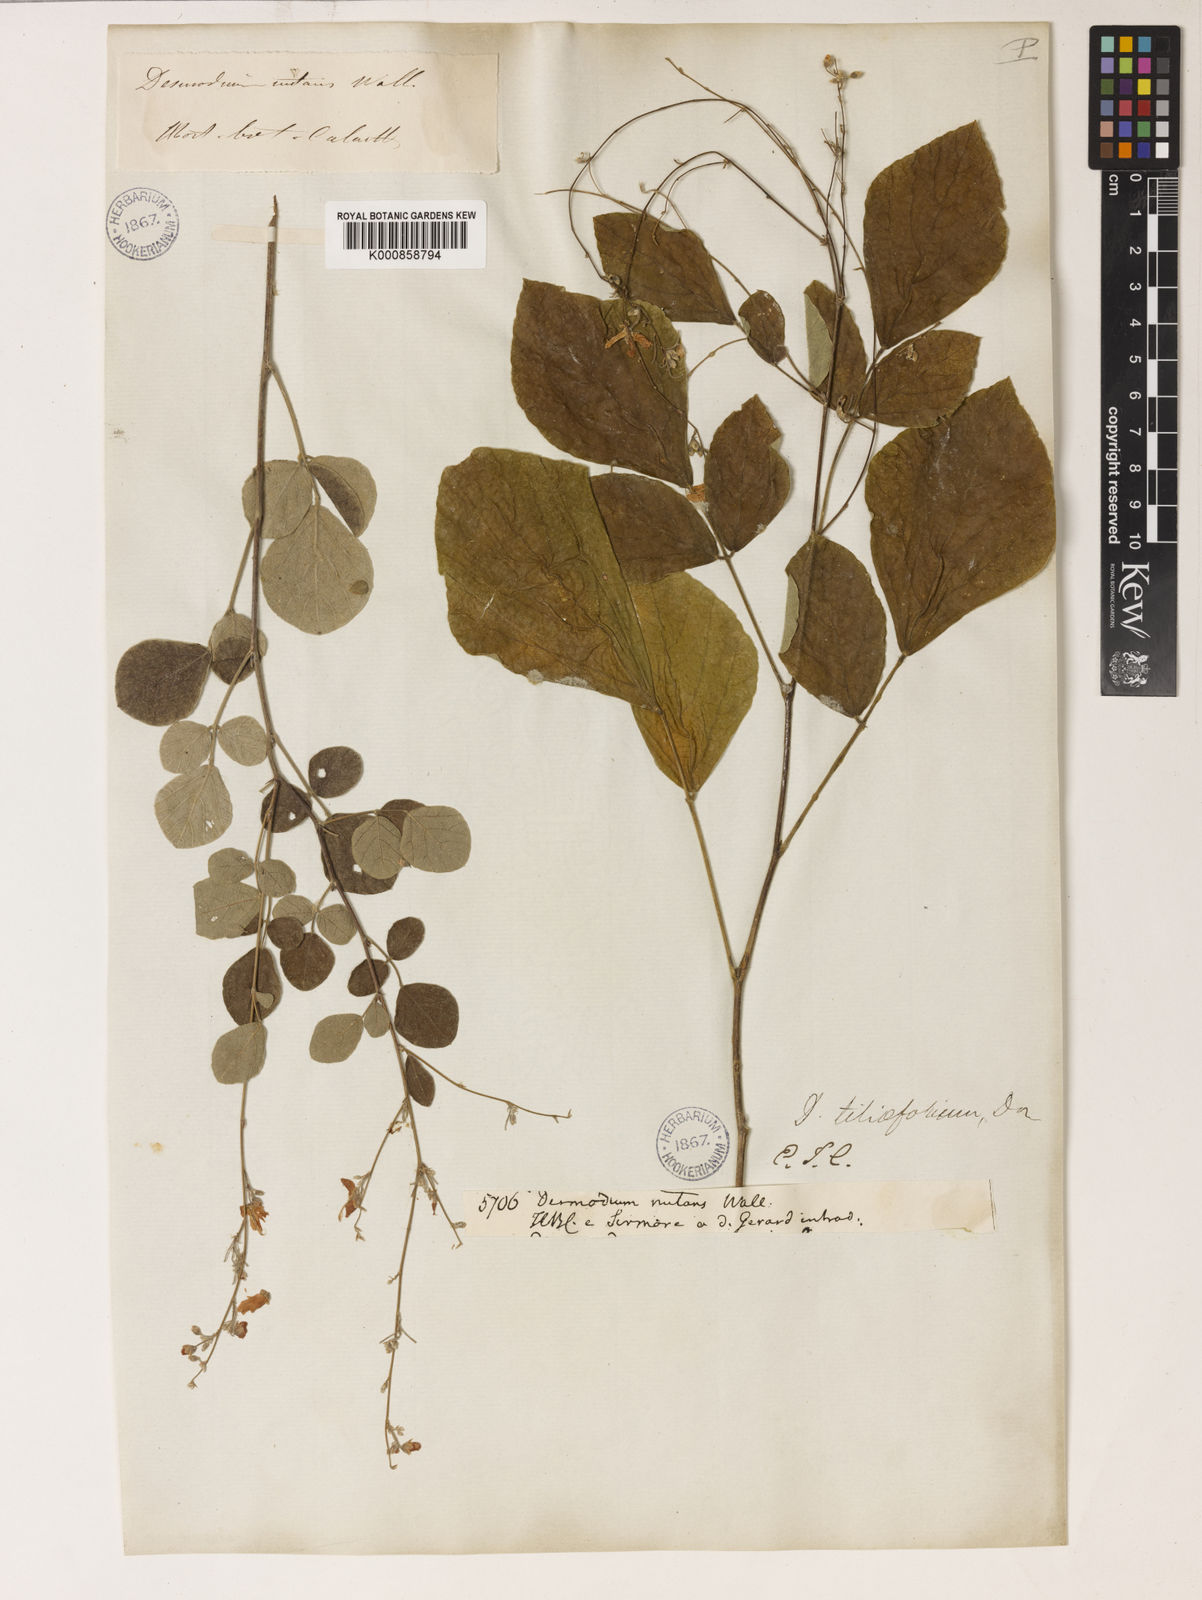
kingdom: Plantae
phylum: Tracheophyta
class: Magnoliopsida
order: Fabales
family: Fabaceae
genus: Sunhangia
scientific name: Sunhangia elegans
